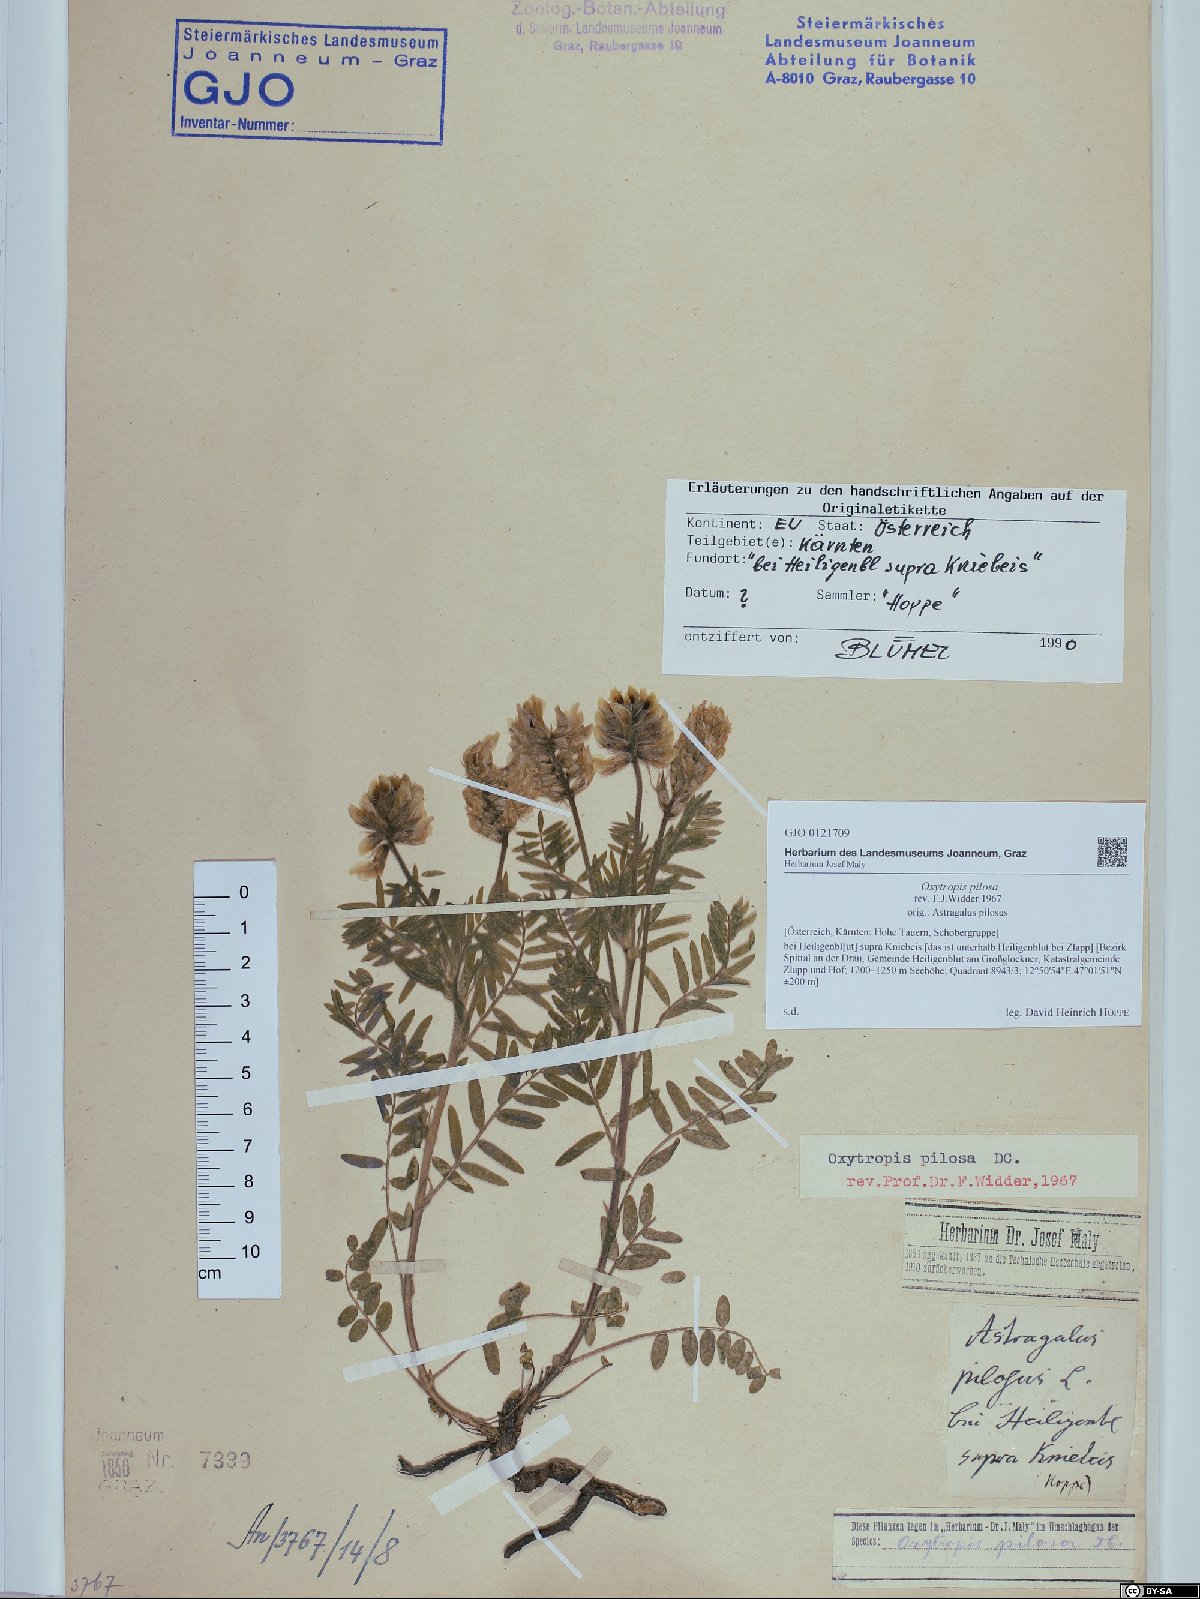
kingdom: Plantae
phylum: Tracheophyta
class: Magnoliopsida
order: Fabales
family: Fabaceae
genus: Oxytropis
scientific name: Oxytropis pilosa
